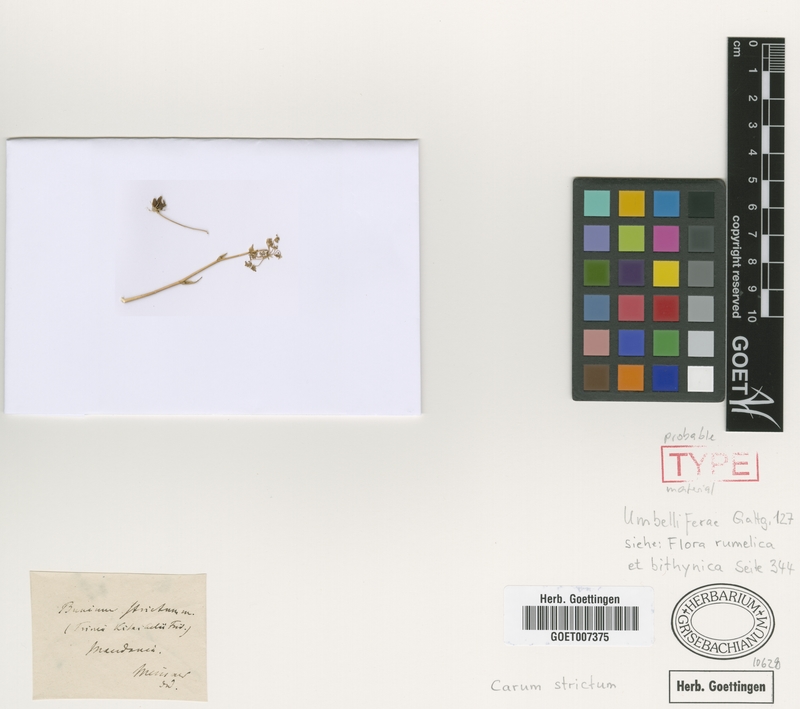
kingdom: Plantae
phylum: Tracheophyta
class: Magnoliopsida
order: Apiales
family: Apiaceae
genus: Hellenocarum
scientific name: Hellenocarum strictum
